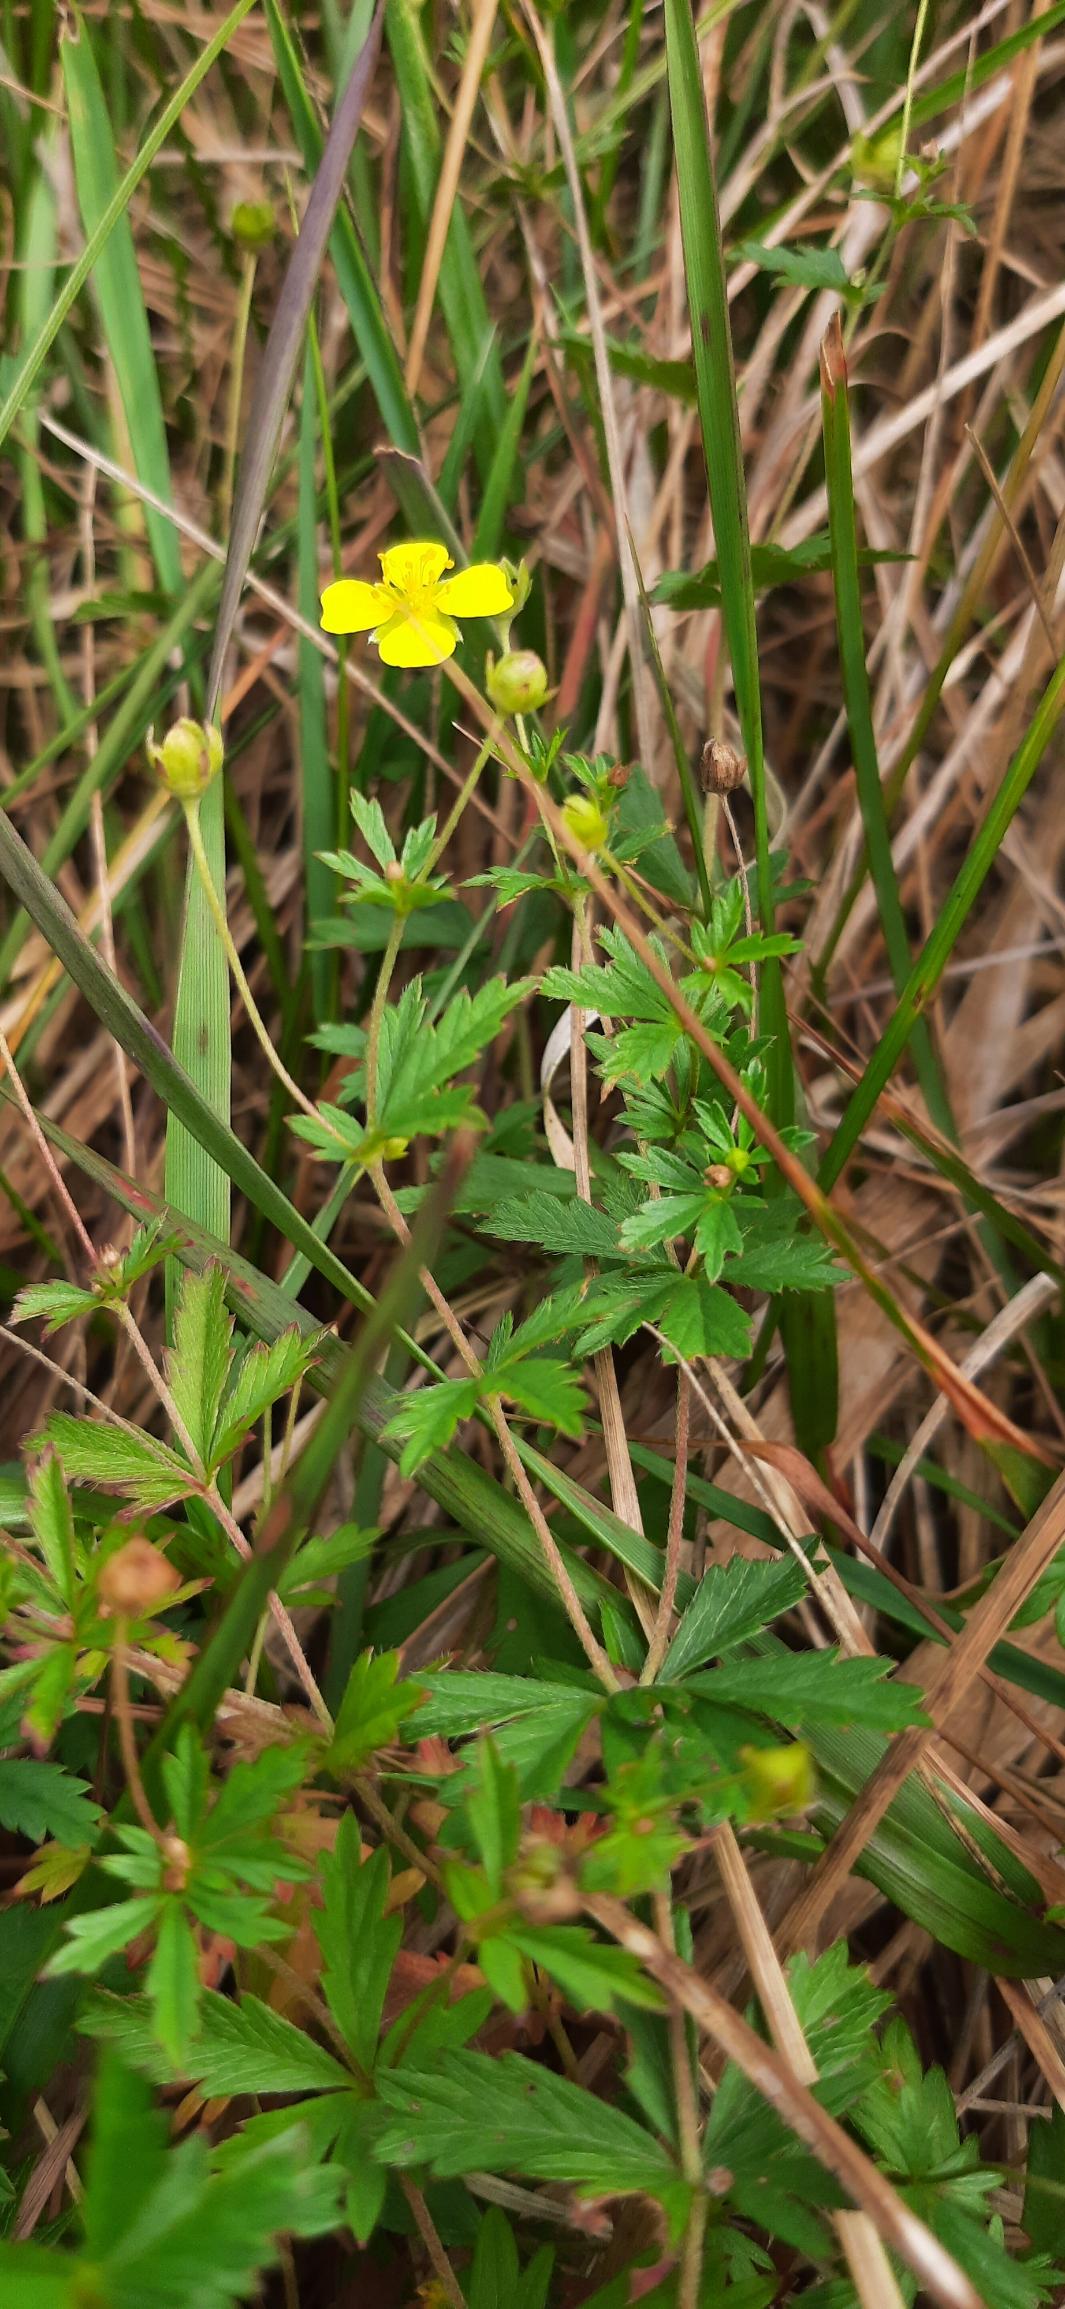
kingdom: Plantae
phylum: Tracheophyta
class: Magnoliopsida
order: Rosales
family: Rosaceae
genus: Potentilla
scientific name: Potentilla erecta
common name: Tormentil
